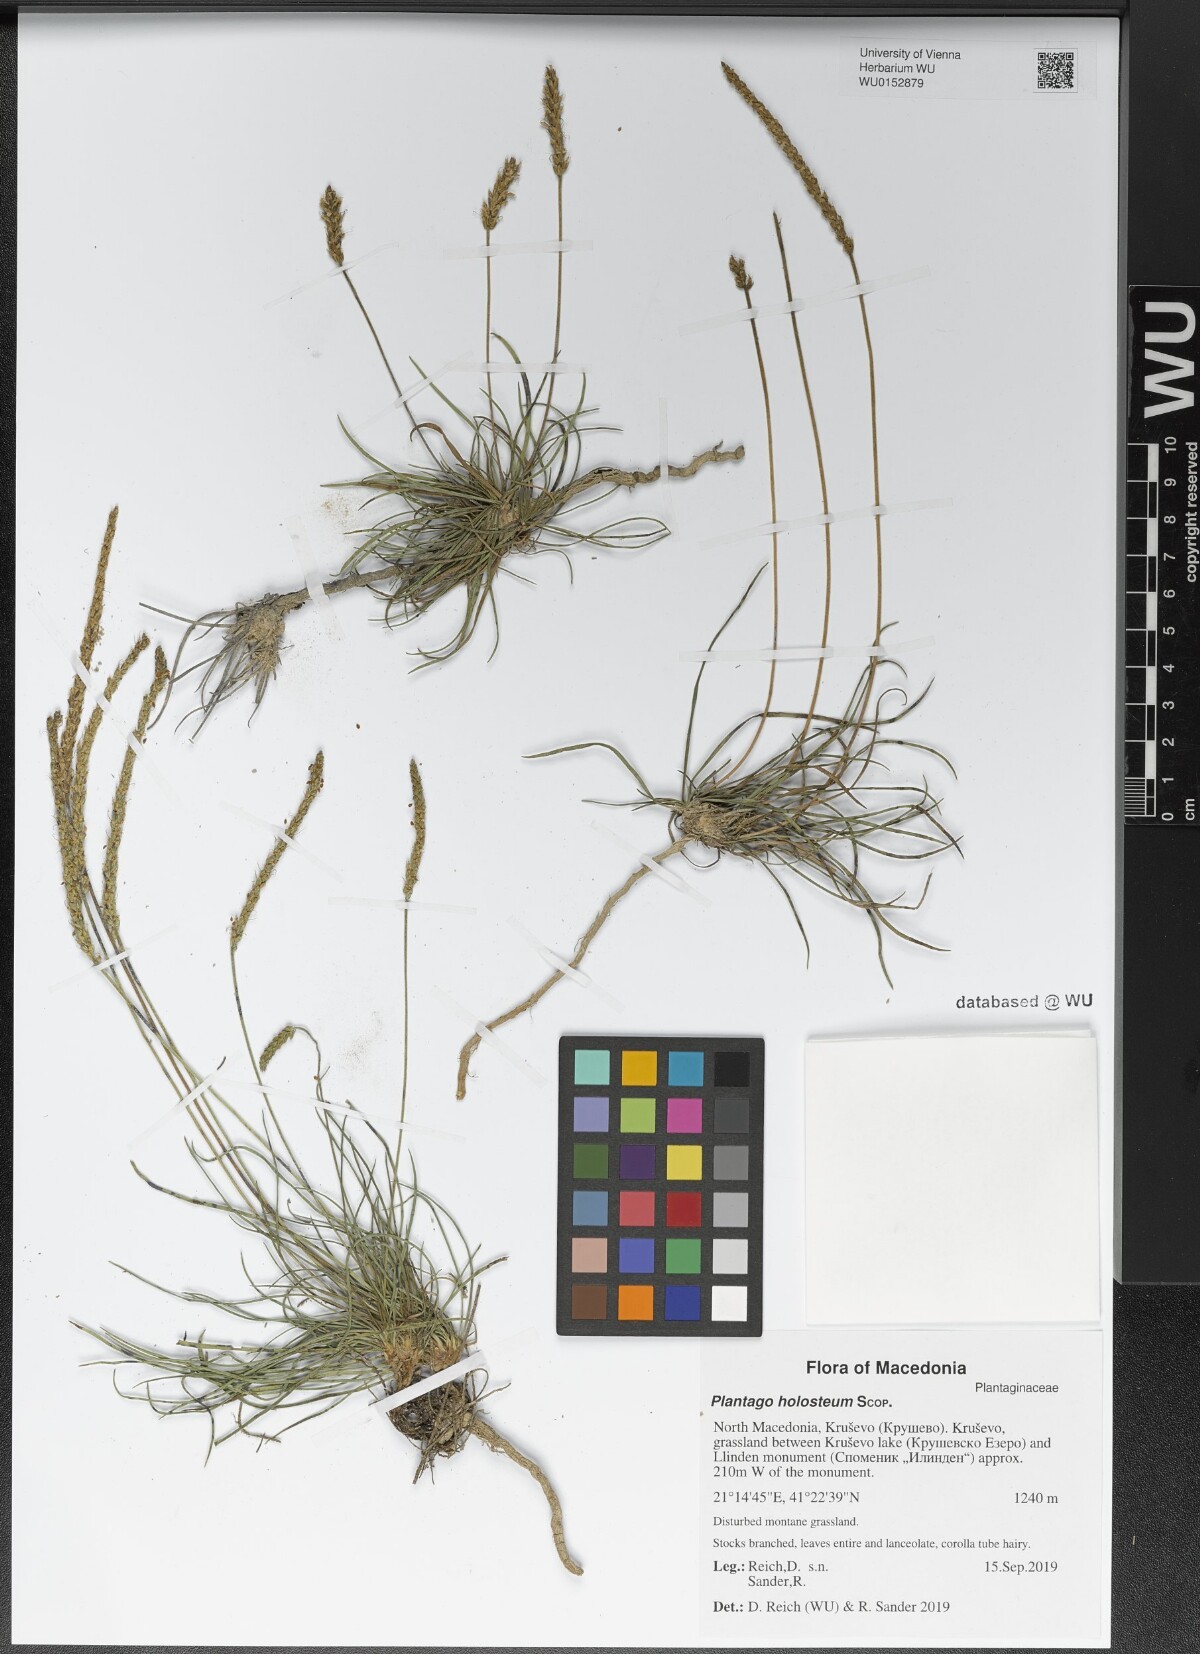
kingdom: Plantae
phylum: Tracheophyta
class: Magnoliopsida
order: Lamiales
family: Plantaginaceae
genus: Plantago
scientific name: Plantago subulata
